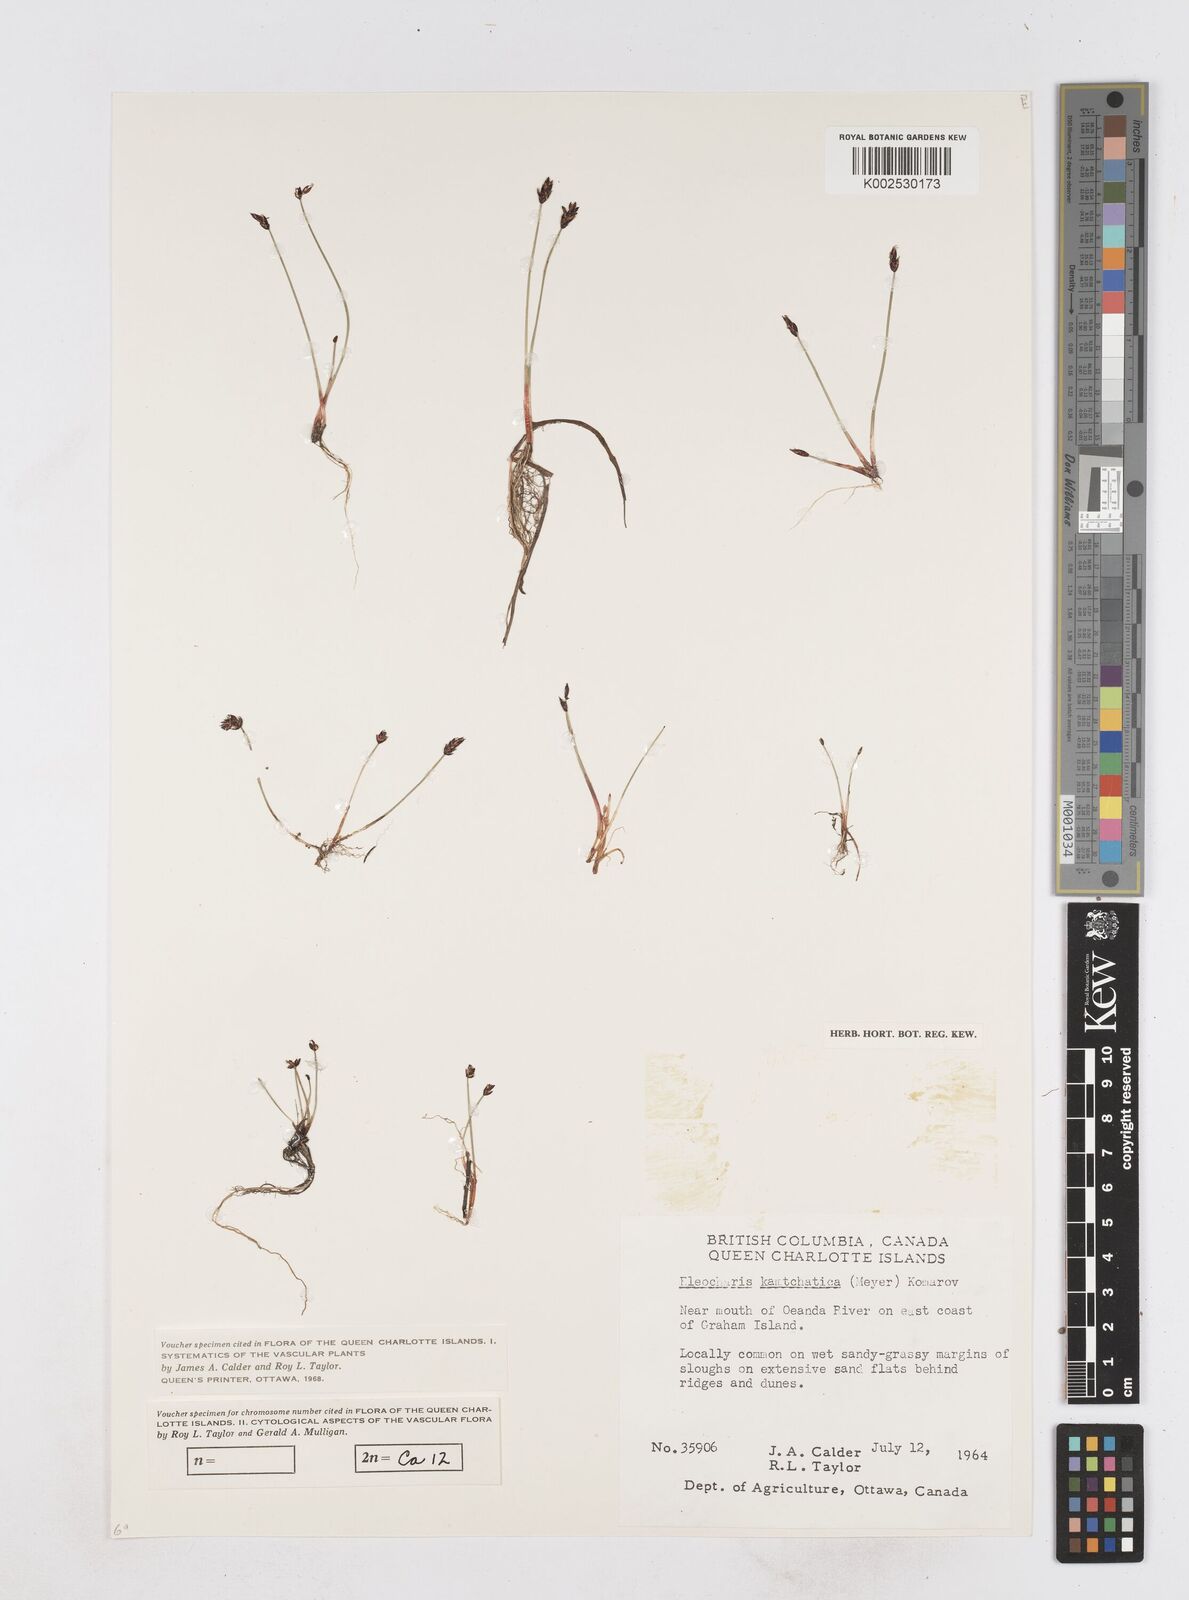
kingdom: Plantae
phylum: Tracheophyta
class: Liliopsida
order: Poales
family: Cyperaceae
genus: Eleocharis
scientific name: Eleocharis kamtschatica
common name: Kamchatka spikerush
